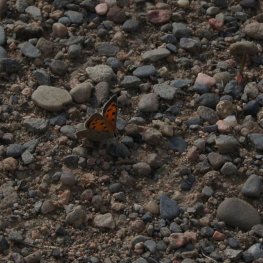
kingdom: Animalia
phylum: Arthropoda
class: Insecta
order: Lepidoptera
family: Lycaenidae
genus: Lycaena
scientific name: Lycaena phlaeas
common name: American Copper
